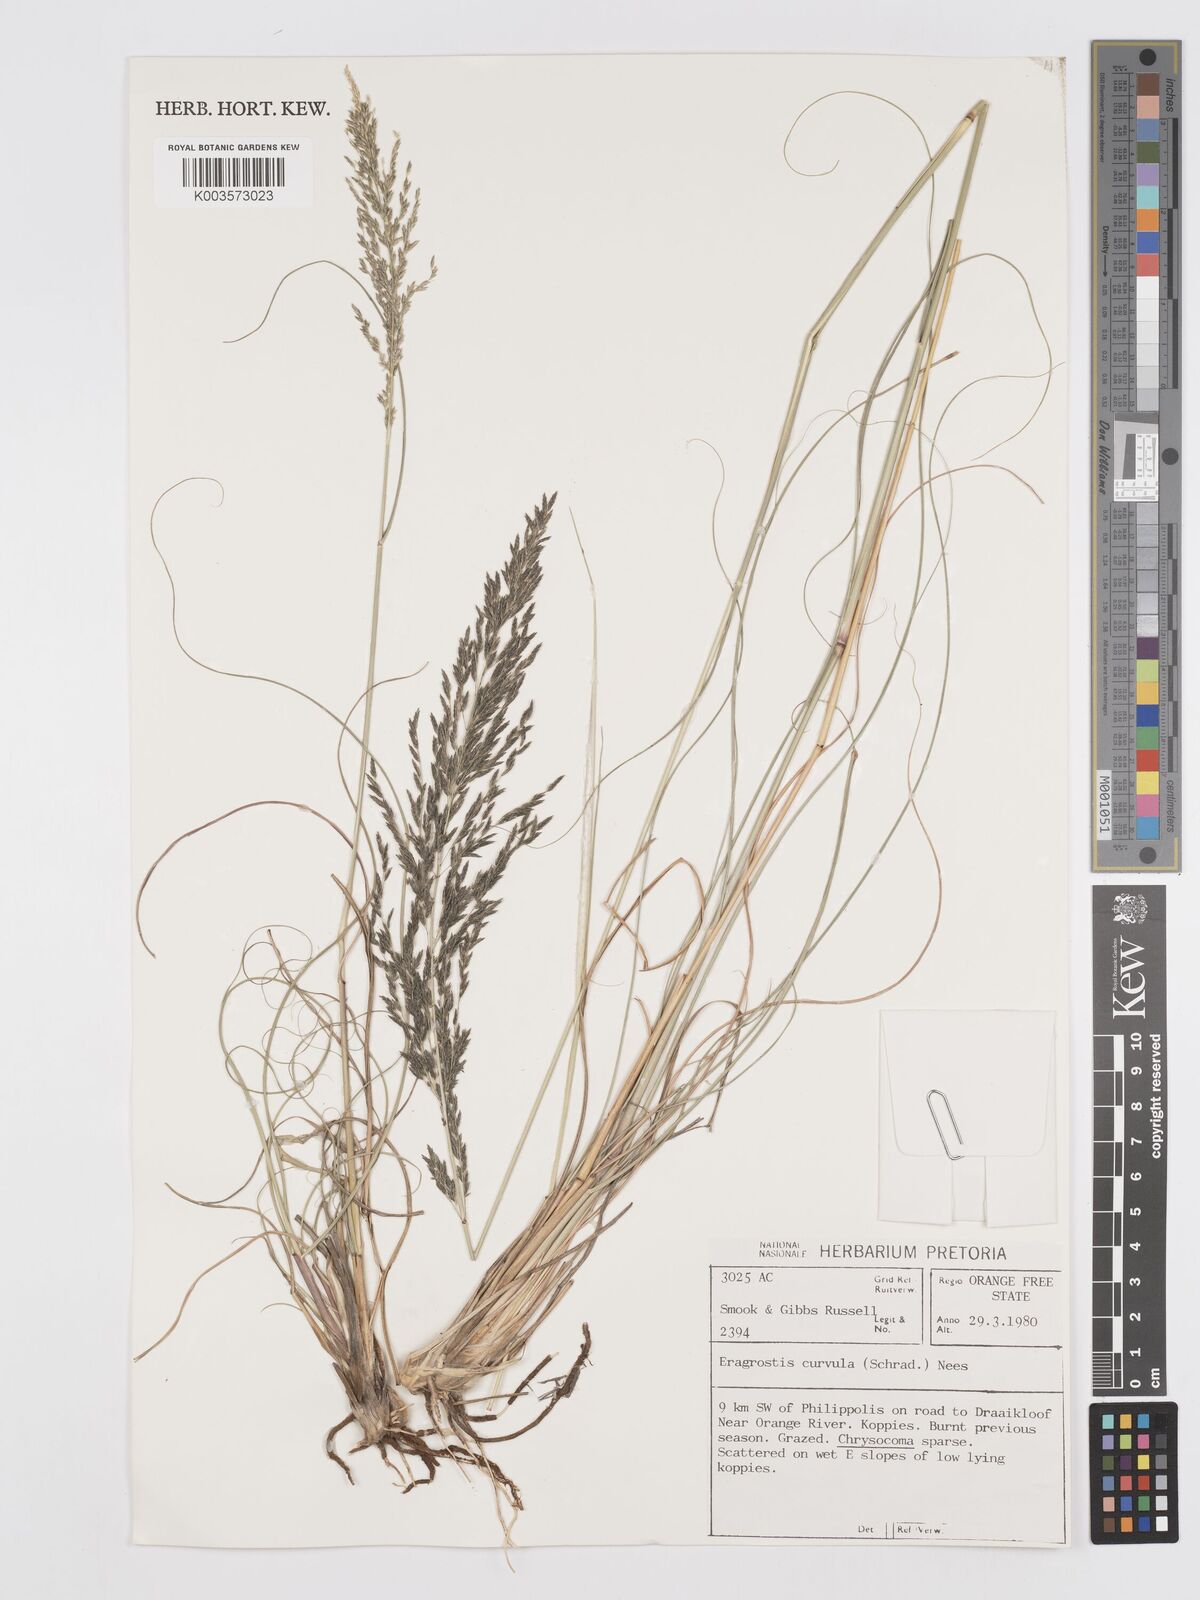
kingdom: Plantae
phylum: Tracheophyta
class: Liliopsida
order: Poales
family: Poaceae
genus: Eragrostis
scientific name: Eragrostis curvula
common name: African love-grass
